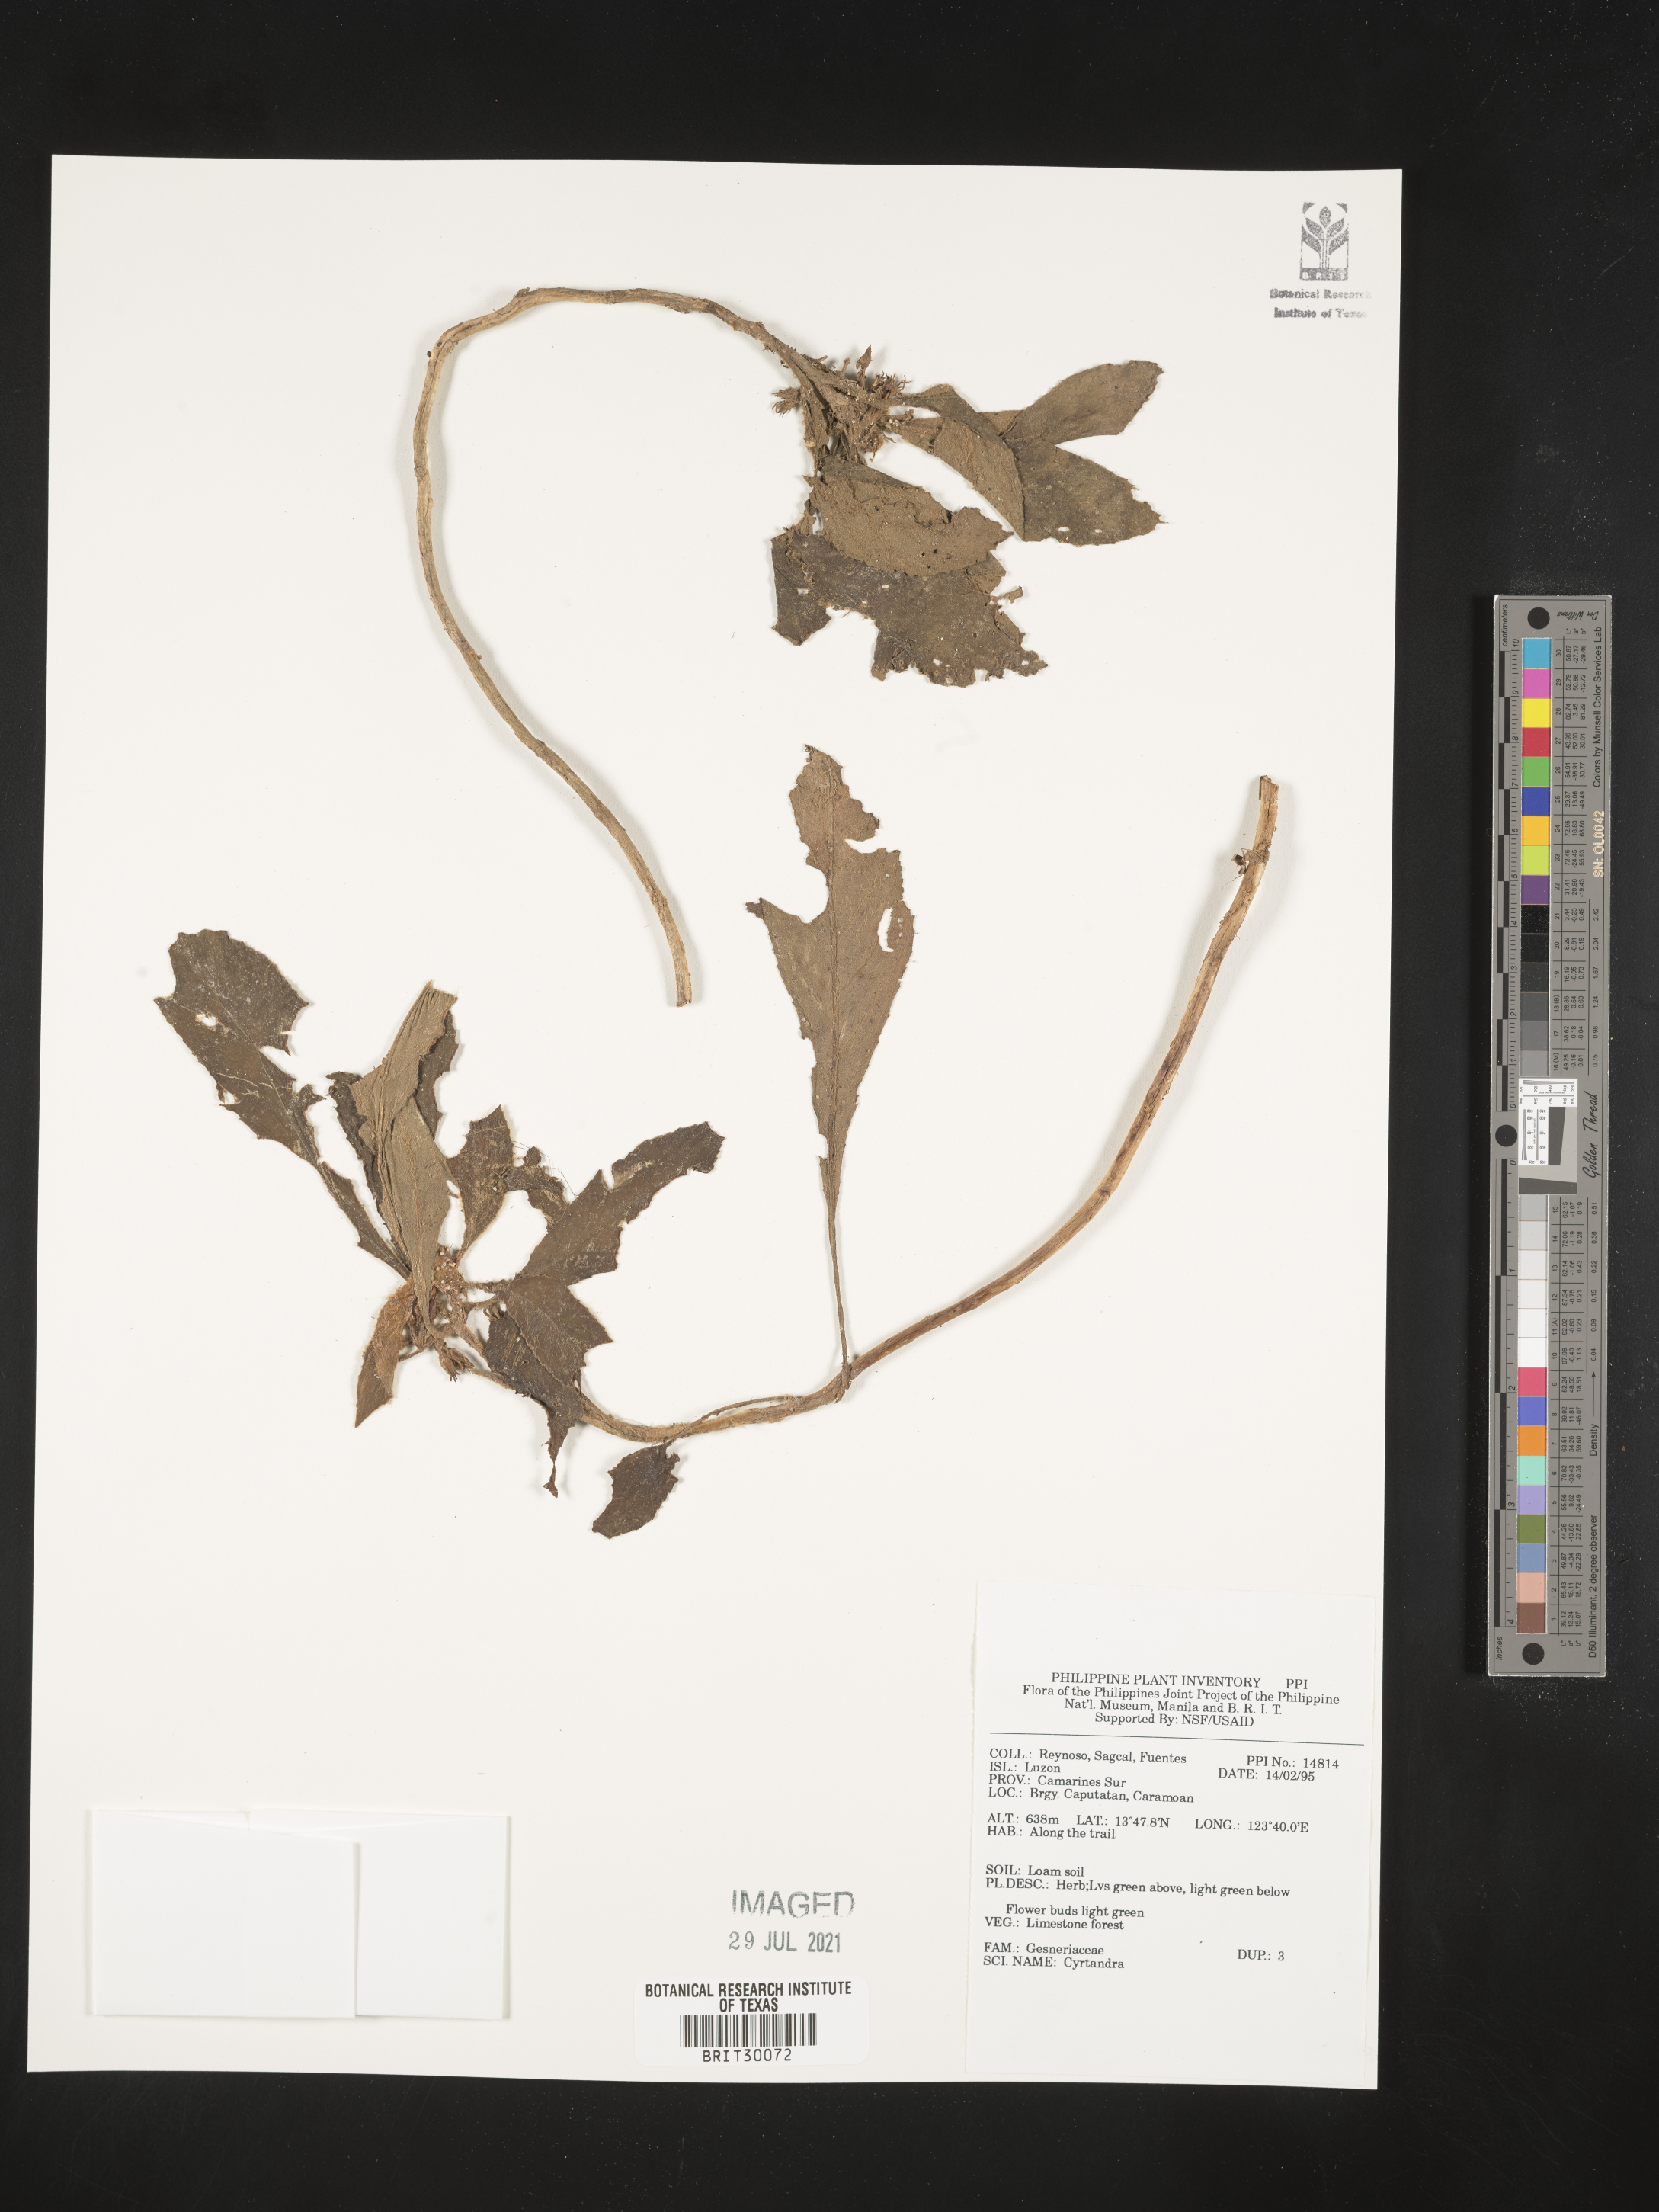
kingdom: Plantae
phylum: Tracheophyta
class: Magnoliopsida
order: Lamiales
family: Gesneriaceae
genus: Cyrtandra
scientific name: Cyrtandra
